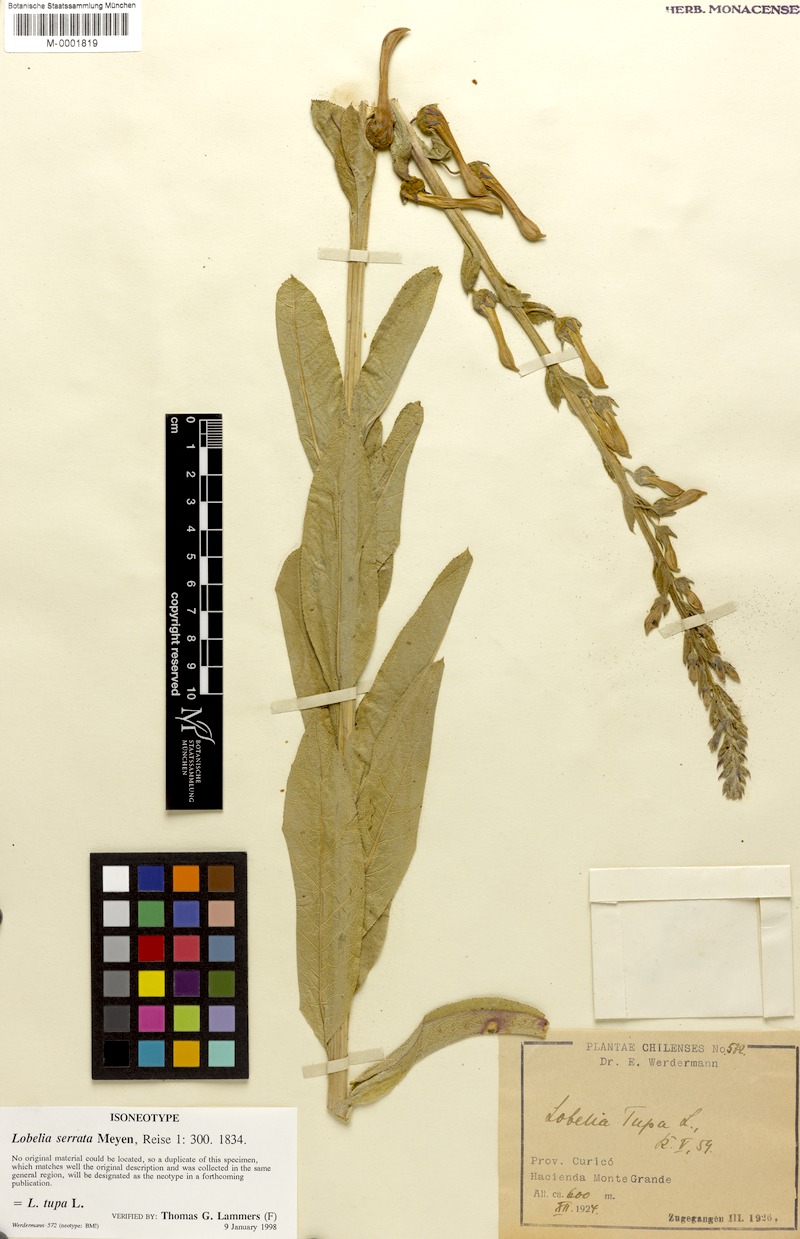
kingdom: Plantae
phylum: Tracheophyta
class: Magnoliopsida
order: Asterales
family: Campanulaceae
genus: Lobelia
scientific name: Lobelia tupa
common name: Devil's-tobacco
